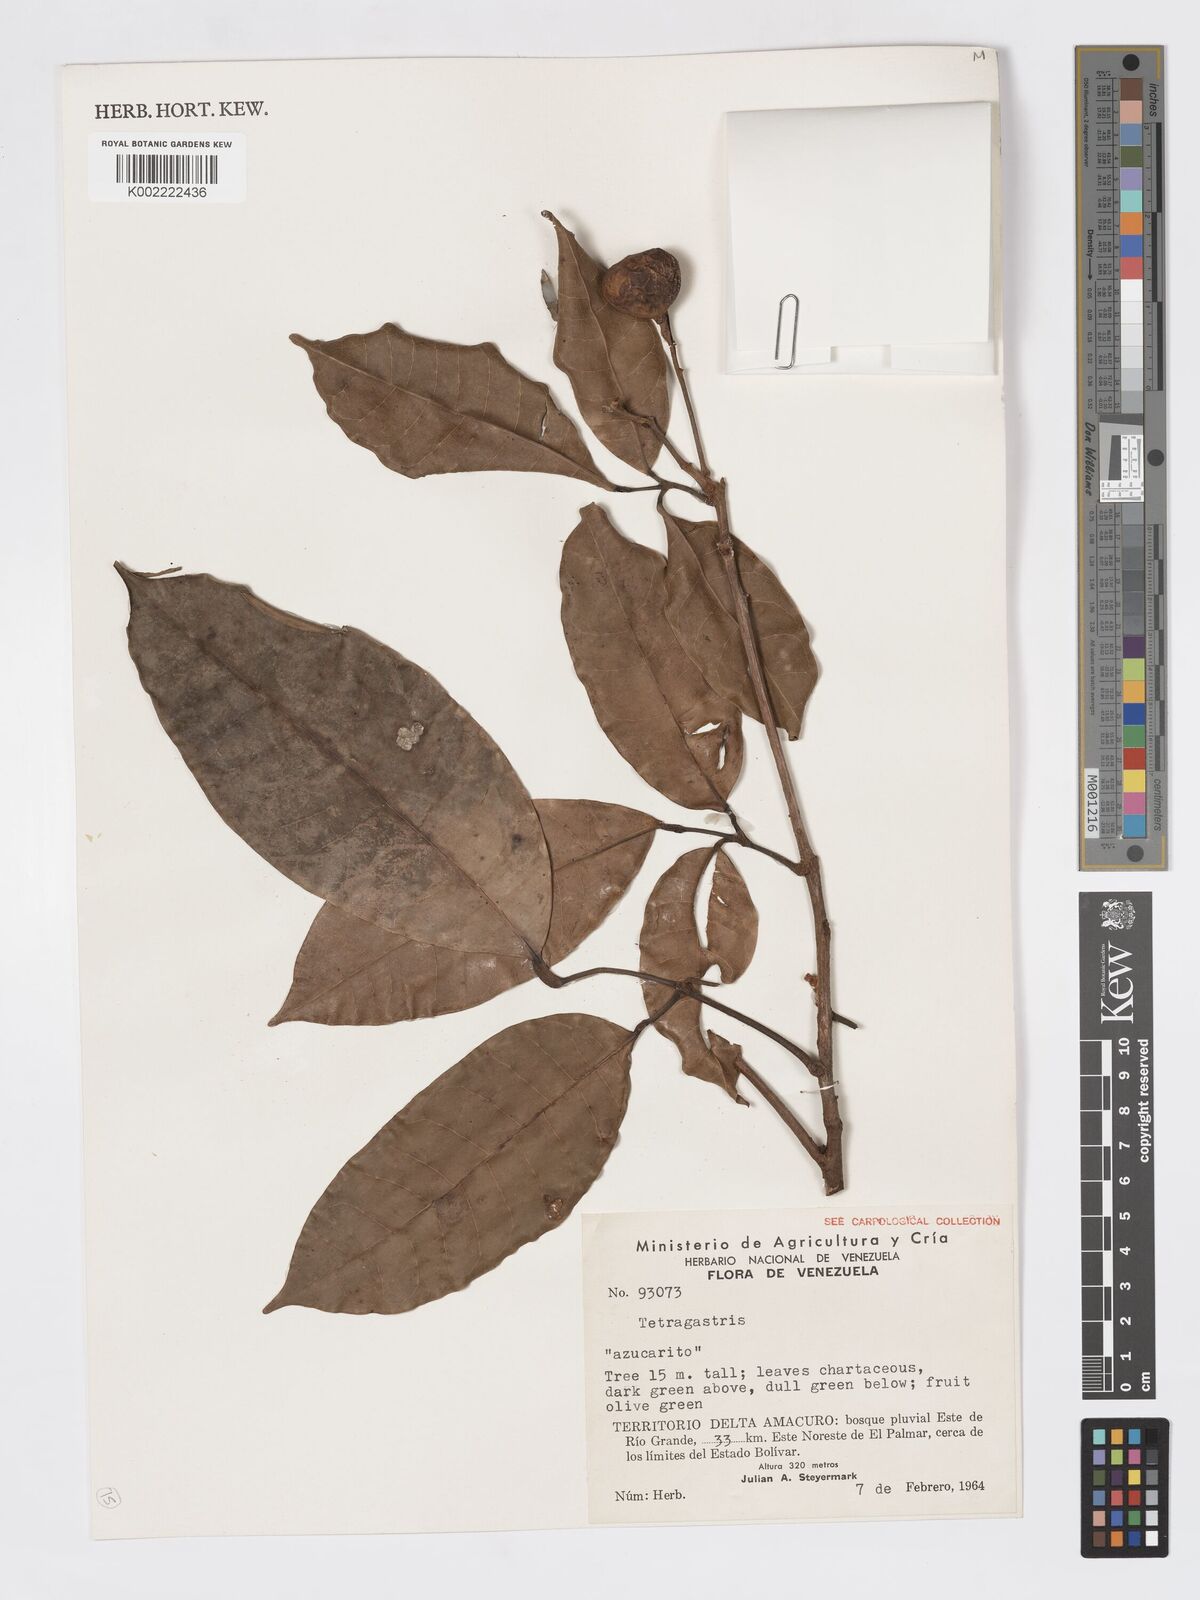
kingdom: Plantae
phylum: Tracheophyta
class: Magnoliopsida
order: Sapindales
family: Burseraceae
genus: Tetragastris
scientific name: Tetragastris
